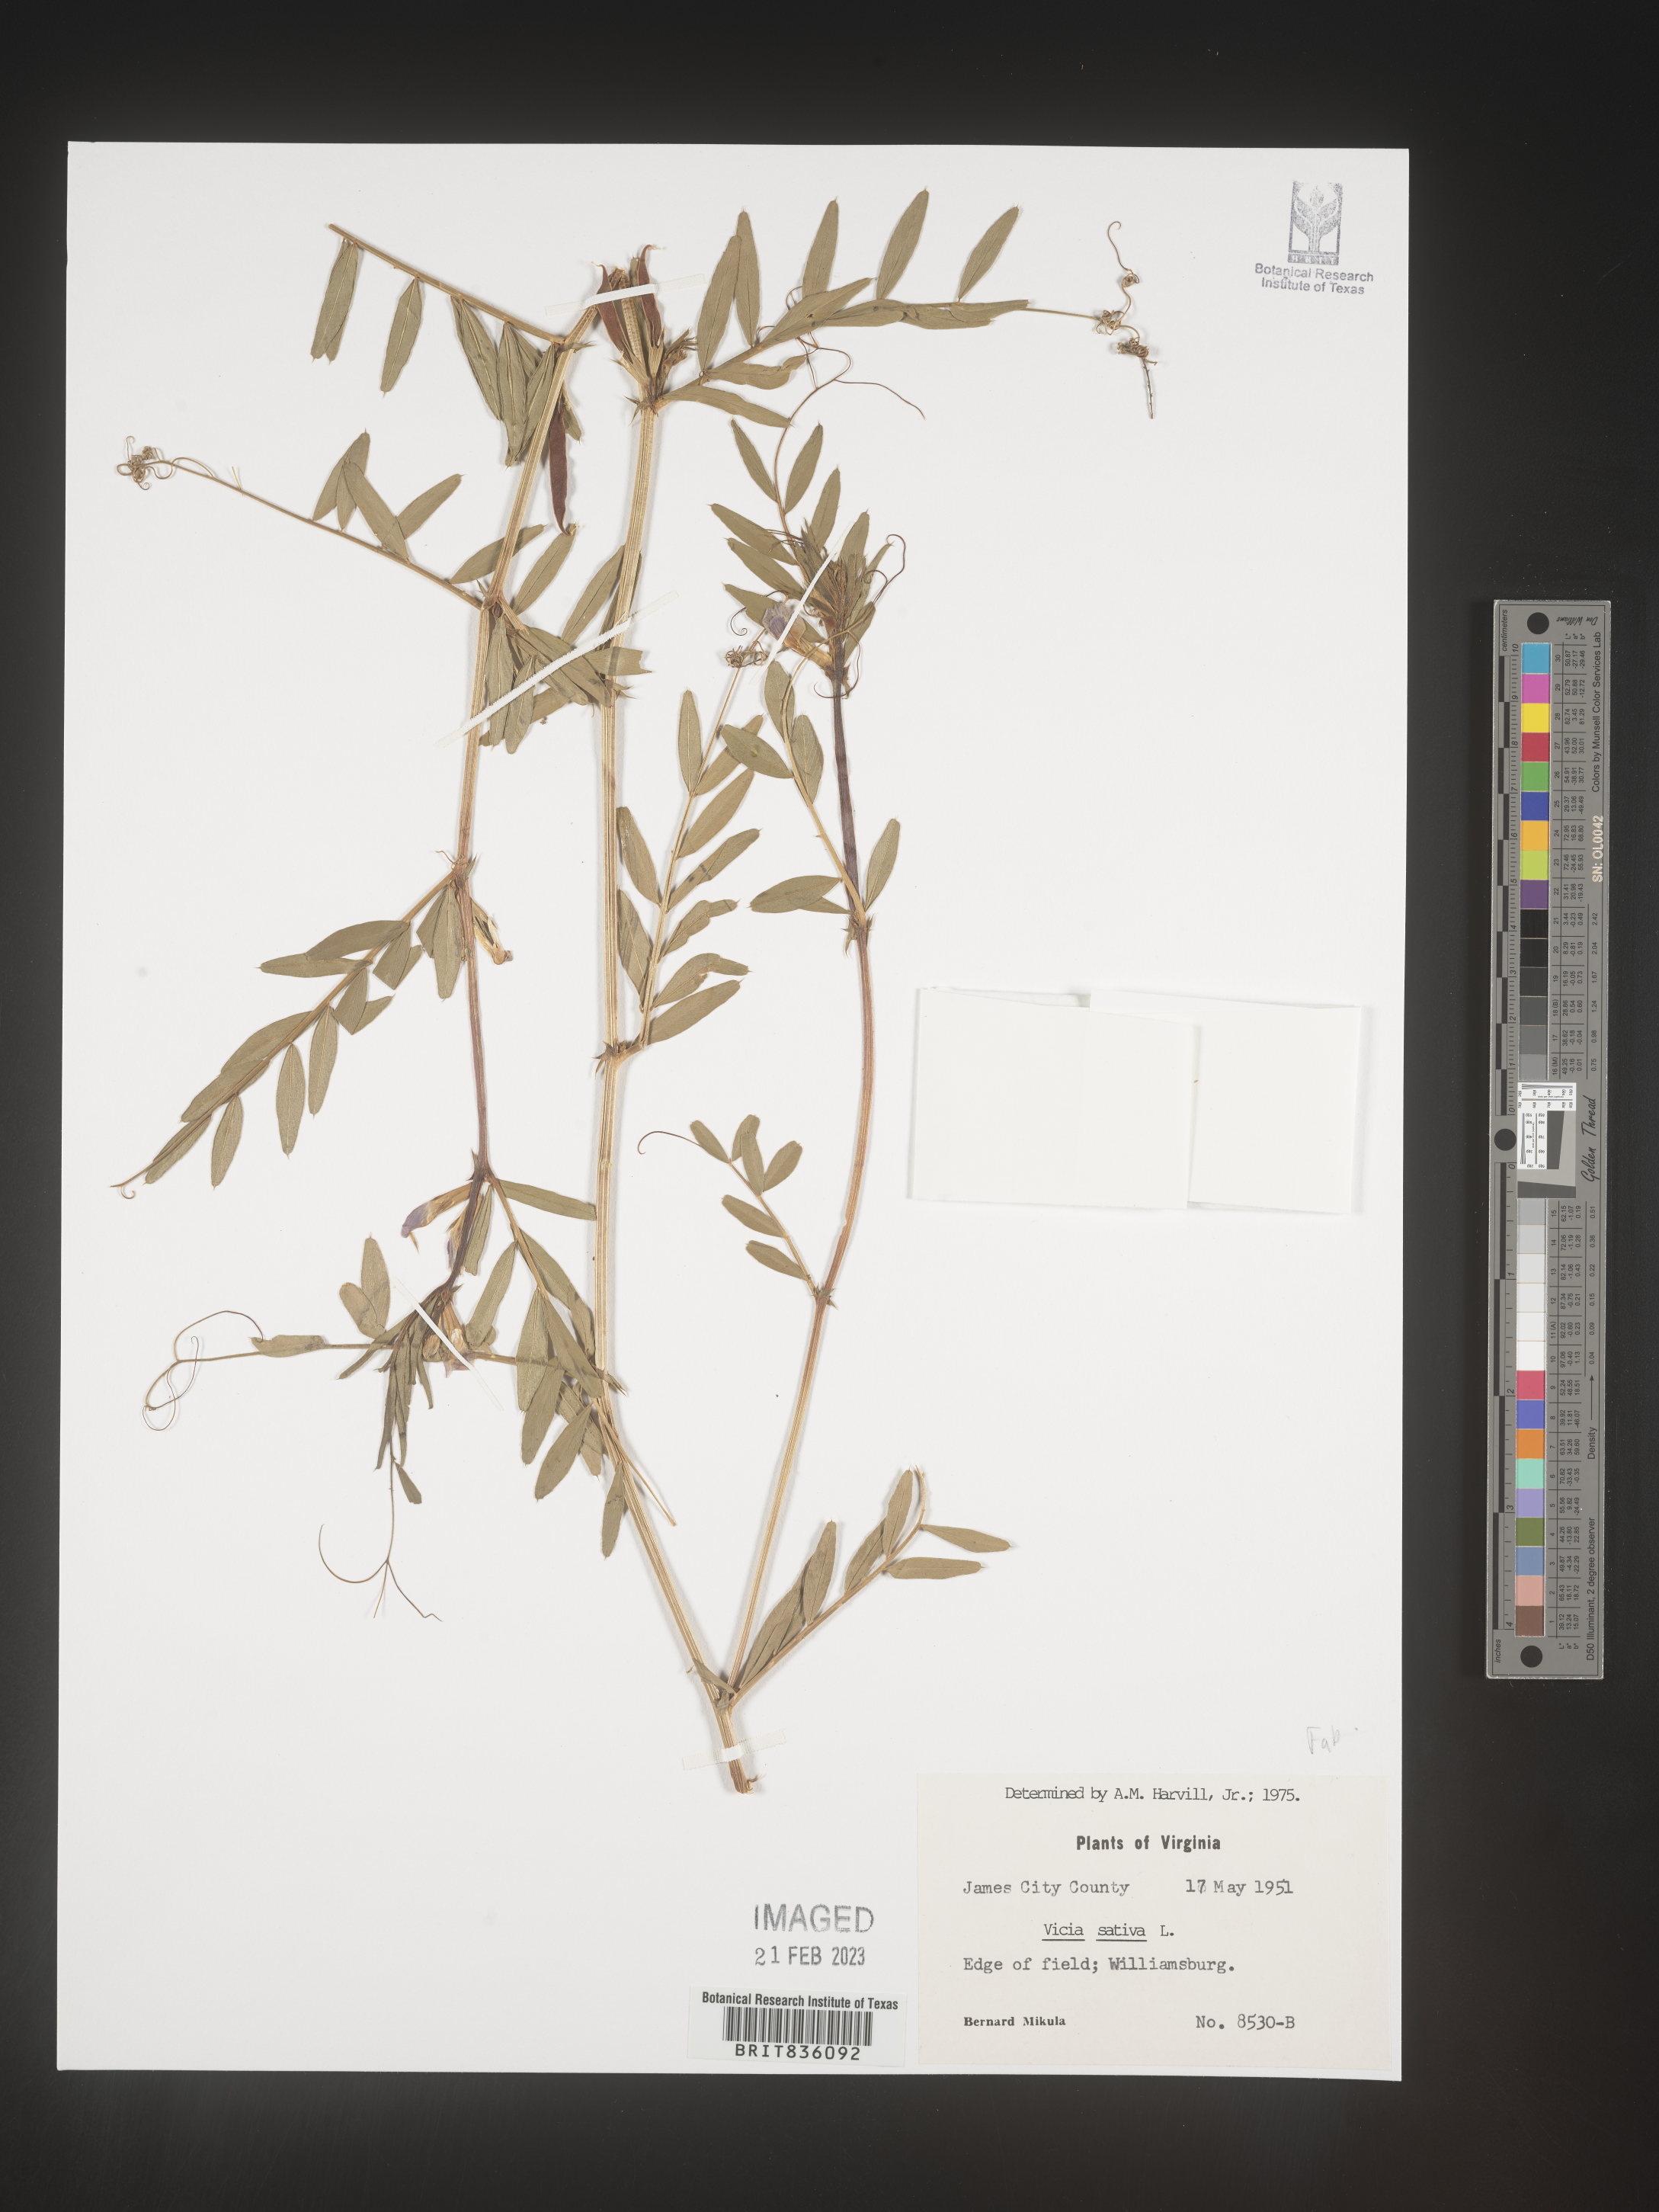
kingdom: Plantae
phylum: Tracheophyta
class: Magnoliopsida
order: Fabales
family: Fabaceae
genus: Vicia
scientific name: Vicia sativa
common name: Garden vetch
